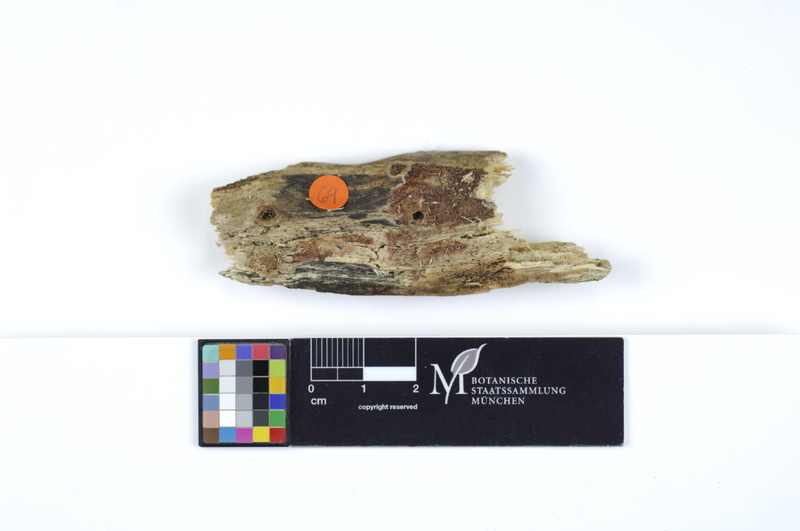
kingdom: Plantae
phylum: Tracheophyta
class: Magnoliopsida
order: Sapindales
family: Sapindaceae
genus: Acer
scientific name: Acer
